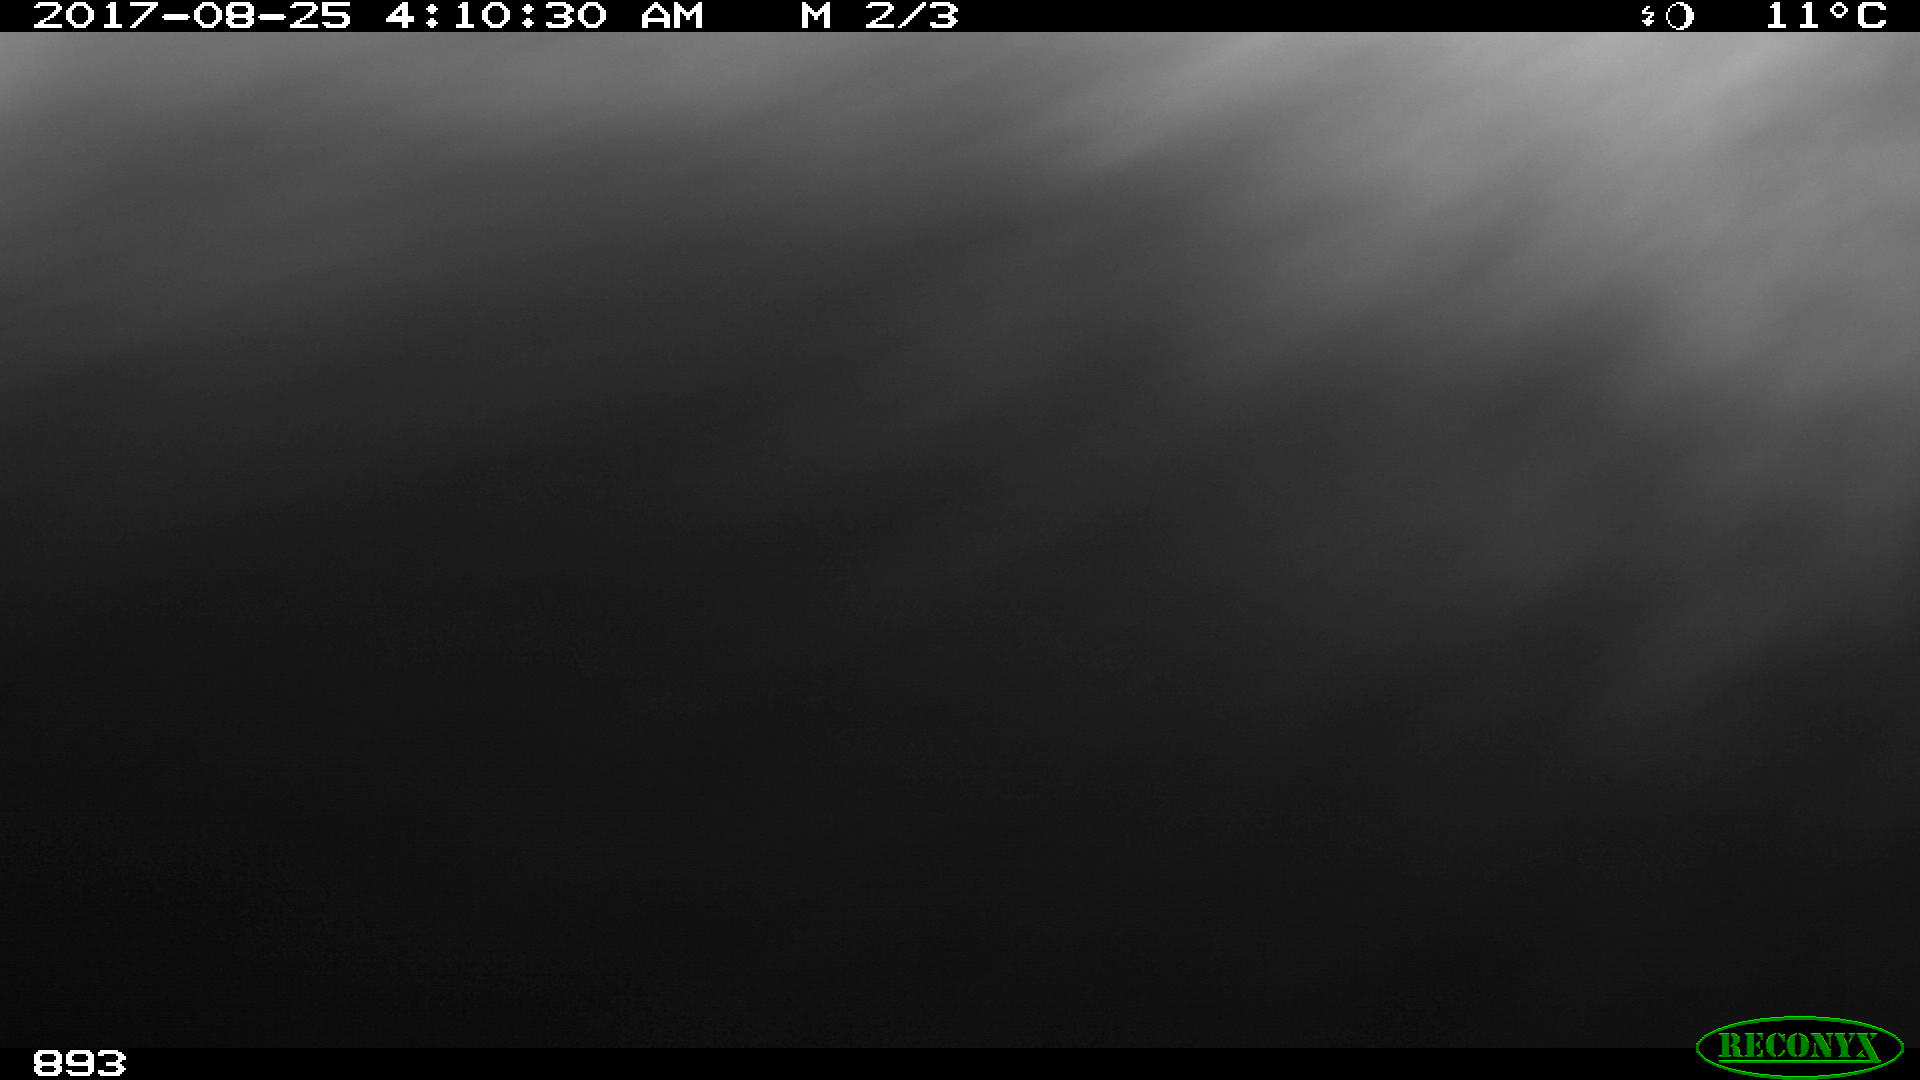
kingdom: Animalia
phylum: Chordata
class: Mammalia
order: Perissodactyla
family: Equidae
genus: Equus
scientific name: Equus caballus
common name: Horse
